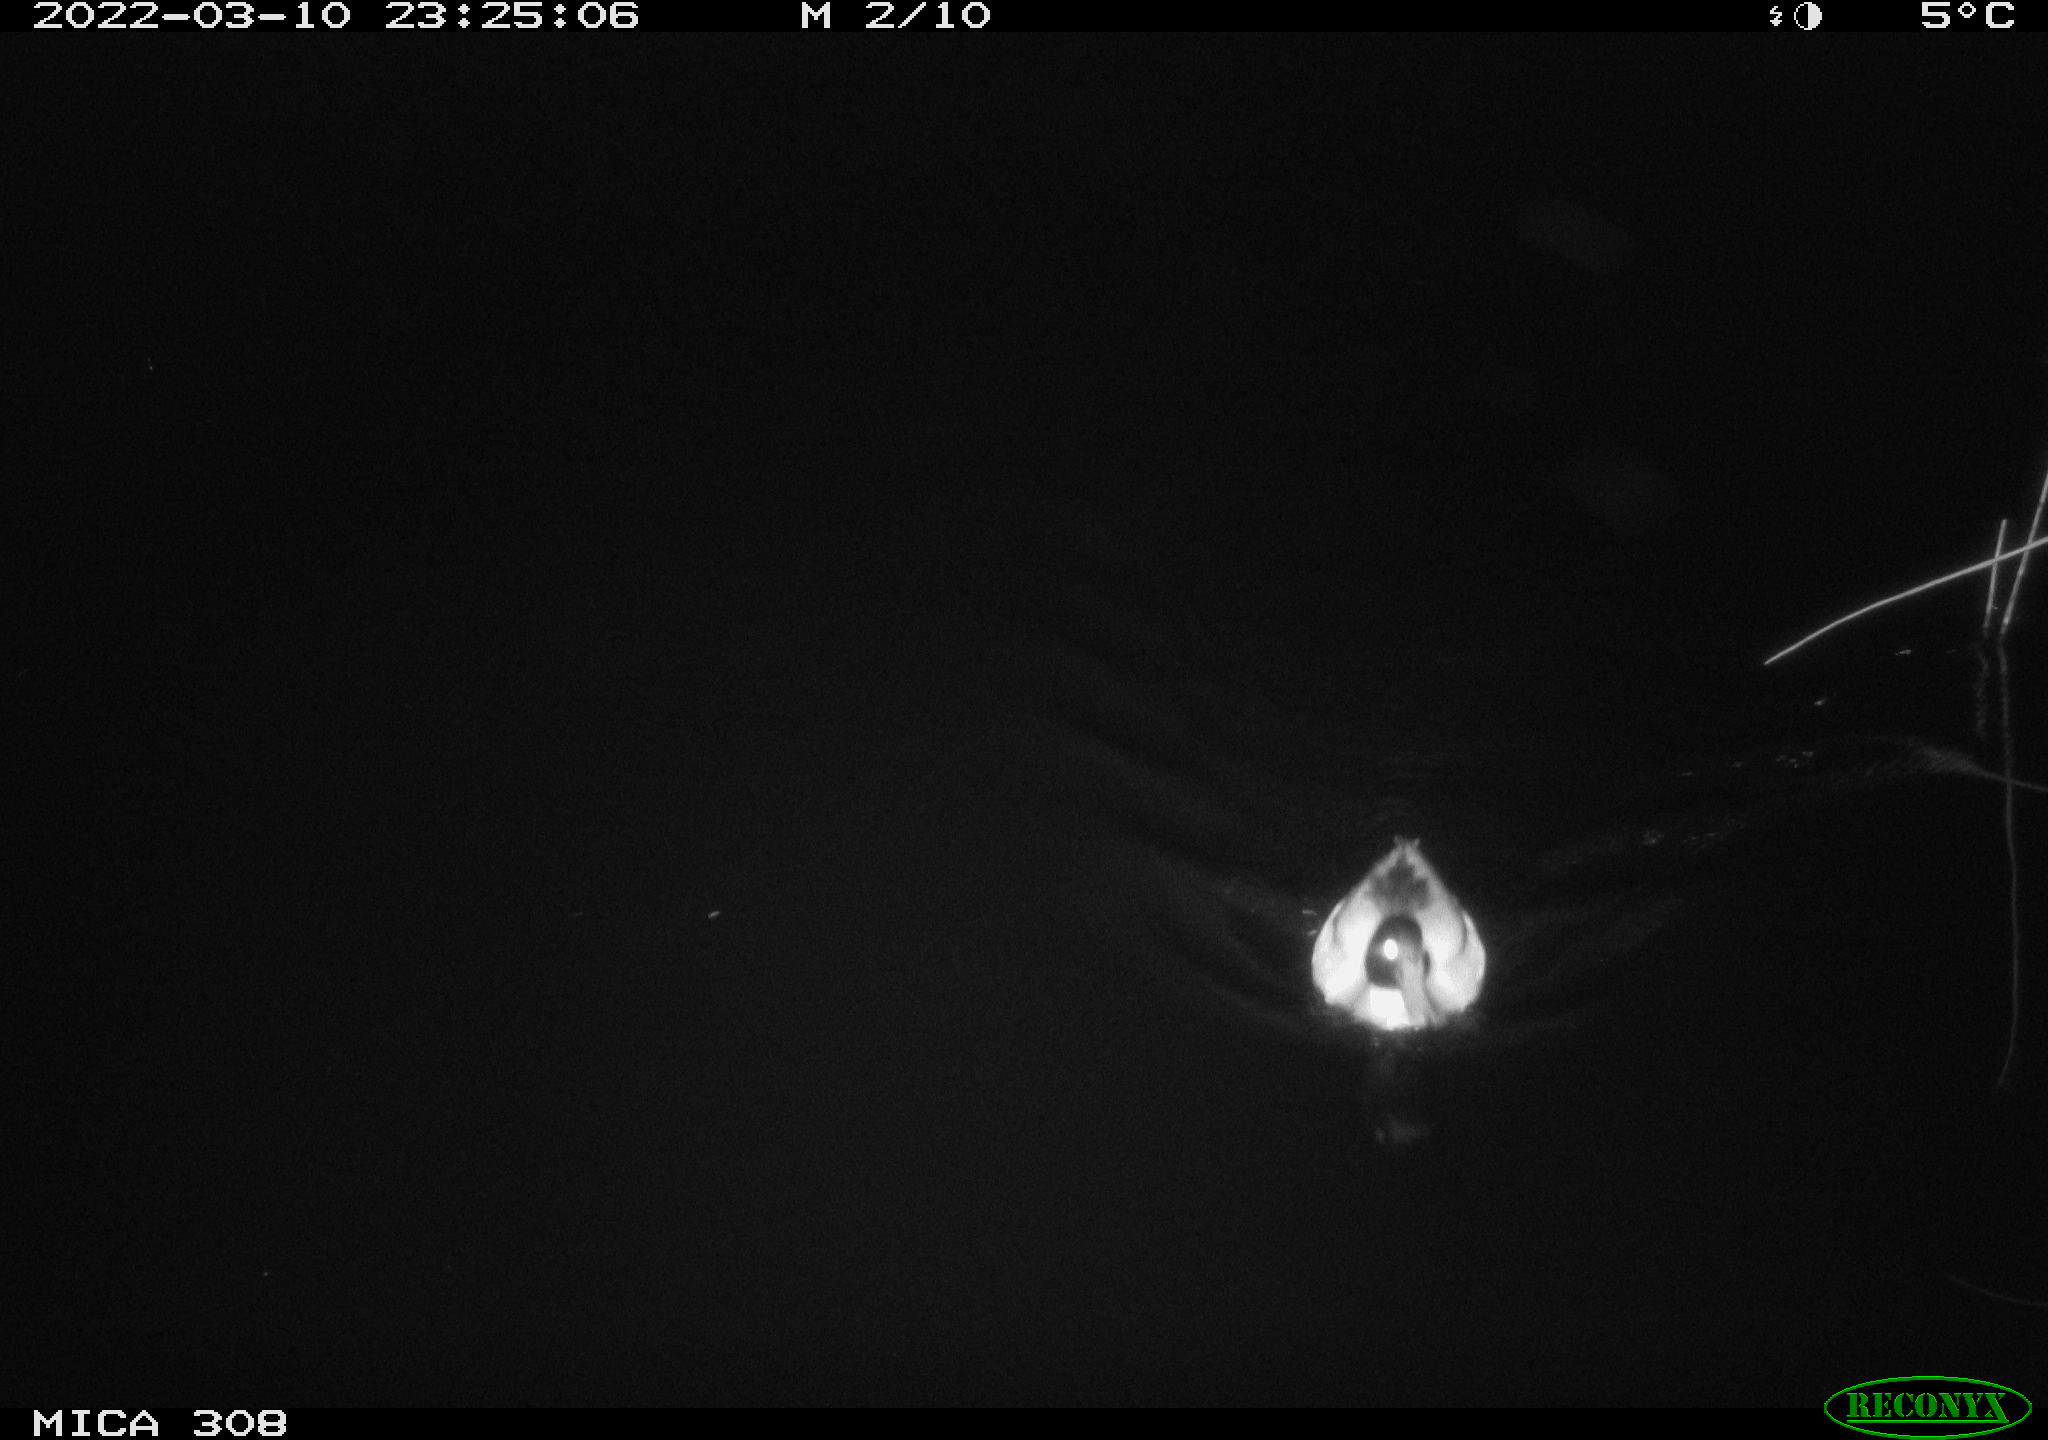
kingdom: Animalia
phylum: Chordata
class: Aves
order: Anseriformes
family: Anatidae
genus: Anas
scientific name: Anas platyrhynchos
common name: Mallard
